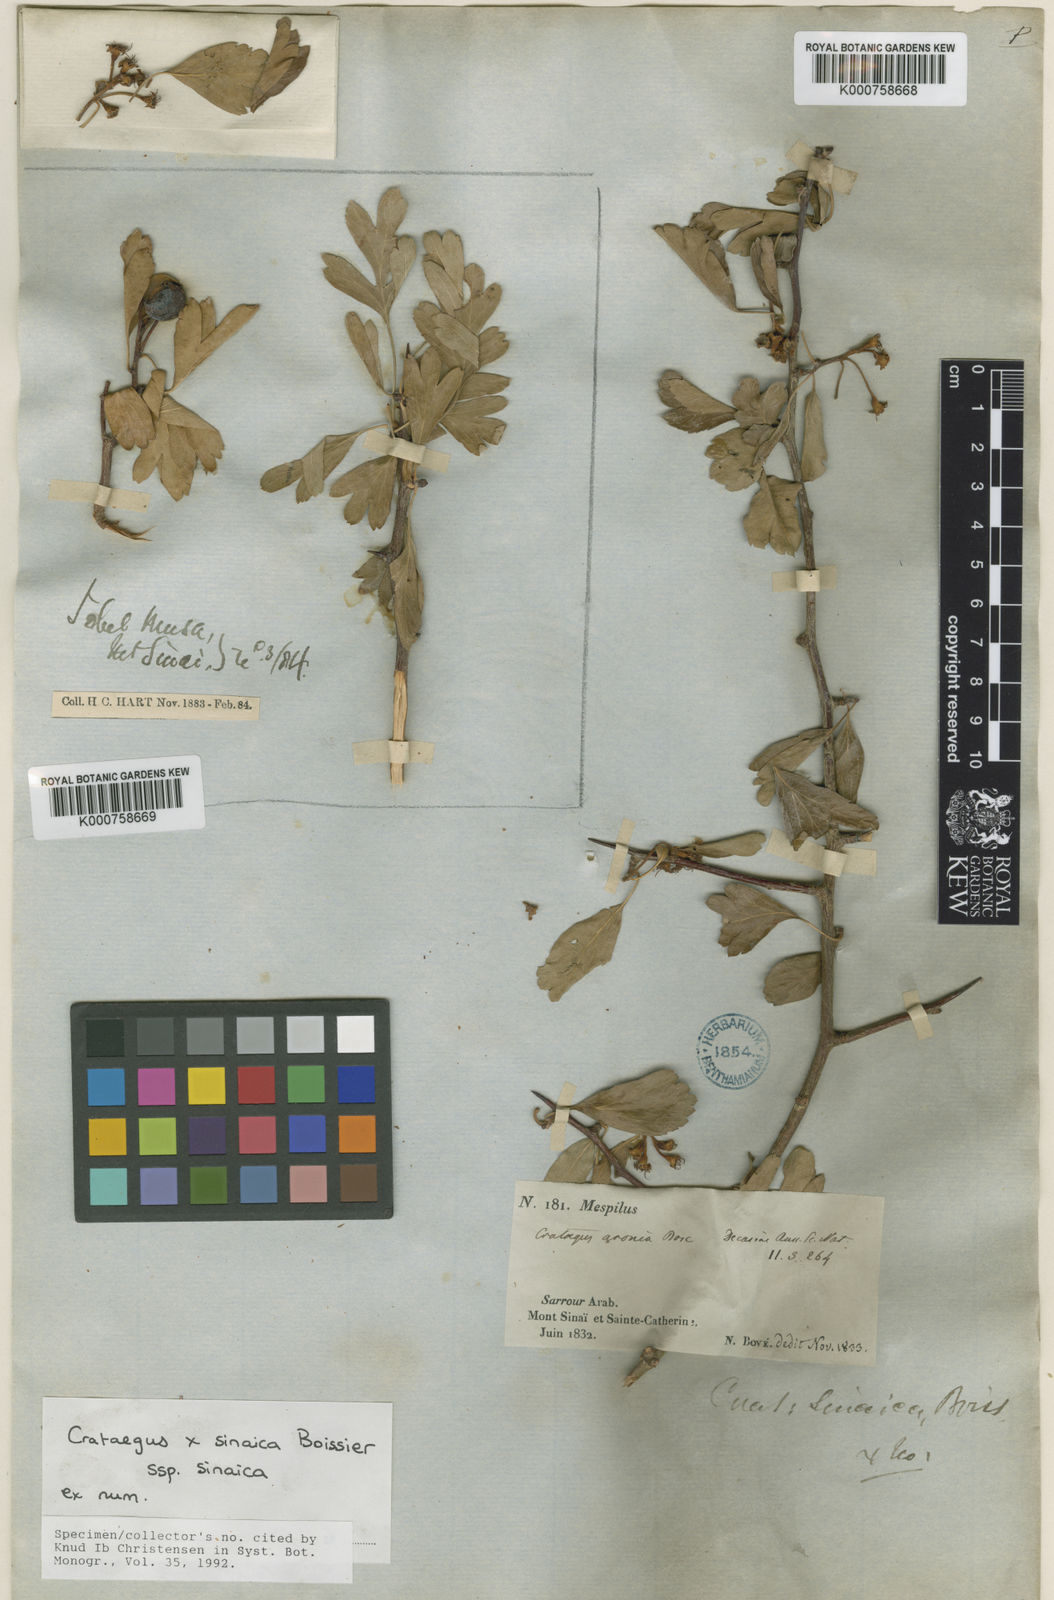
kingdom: Plantae
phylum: Tracheophyta
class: Magnoliopsida
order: Rosales
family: Rosaceae
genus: Crataegus
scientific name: Crataegus sinaica
